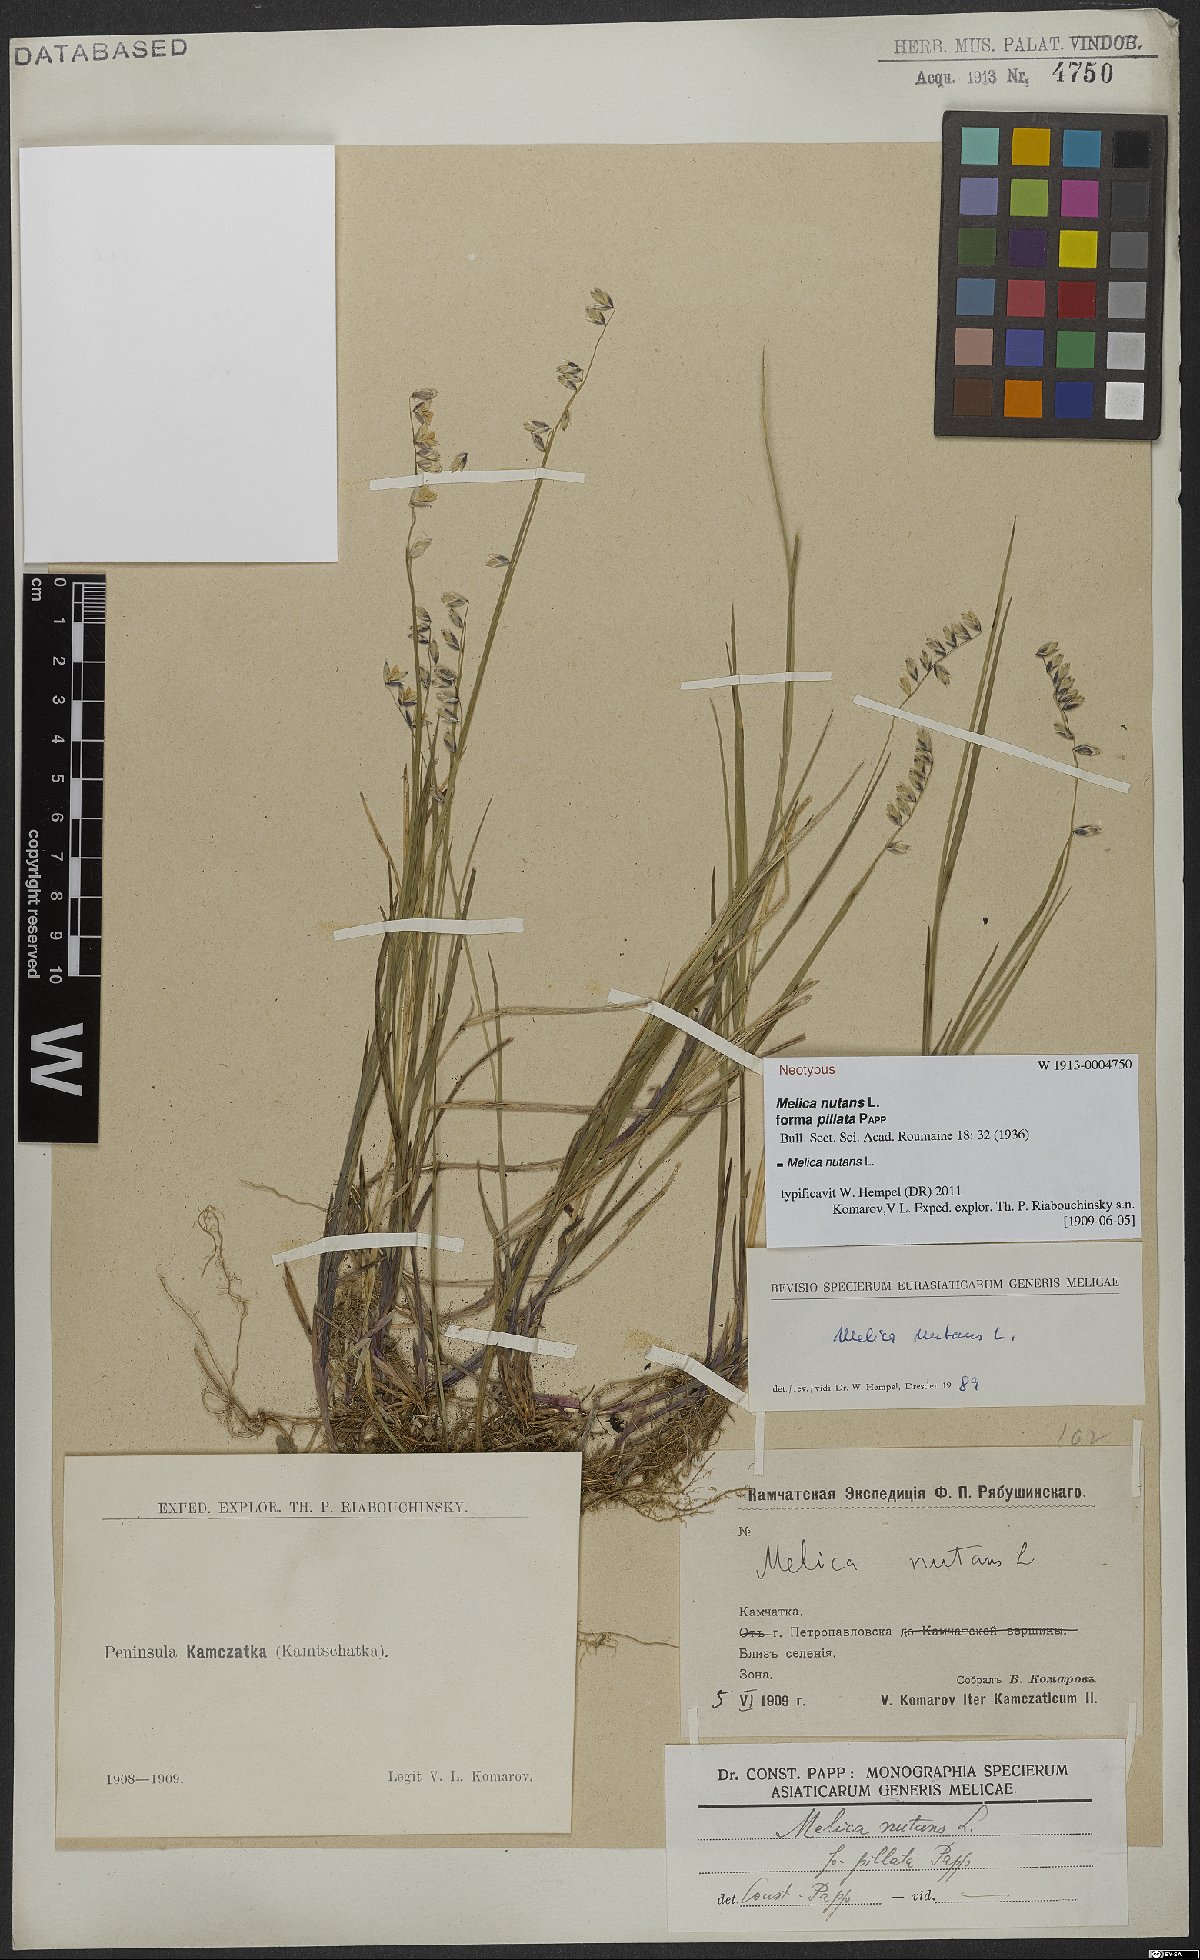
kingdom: Plantae
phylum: Tracheophyta
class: Liliopsida
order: Poales
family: Poaceae
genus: Melica
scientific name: Melica nutans
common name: Mountain melick
